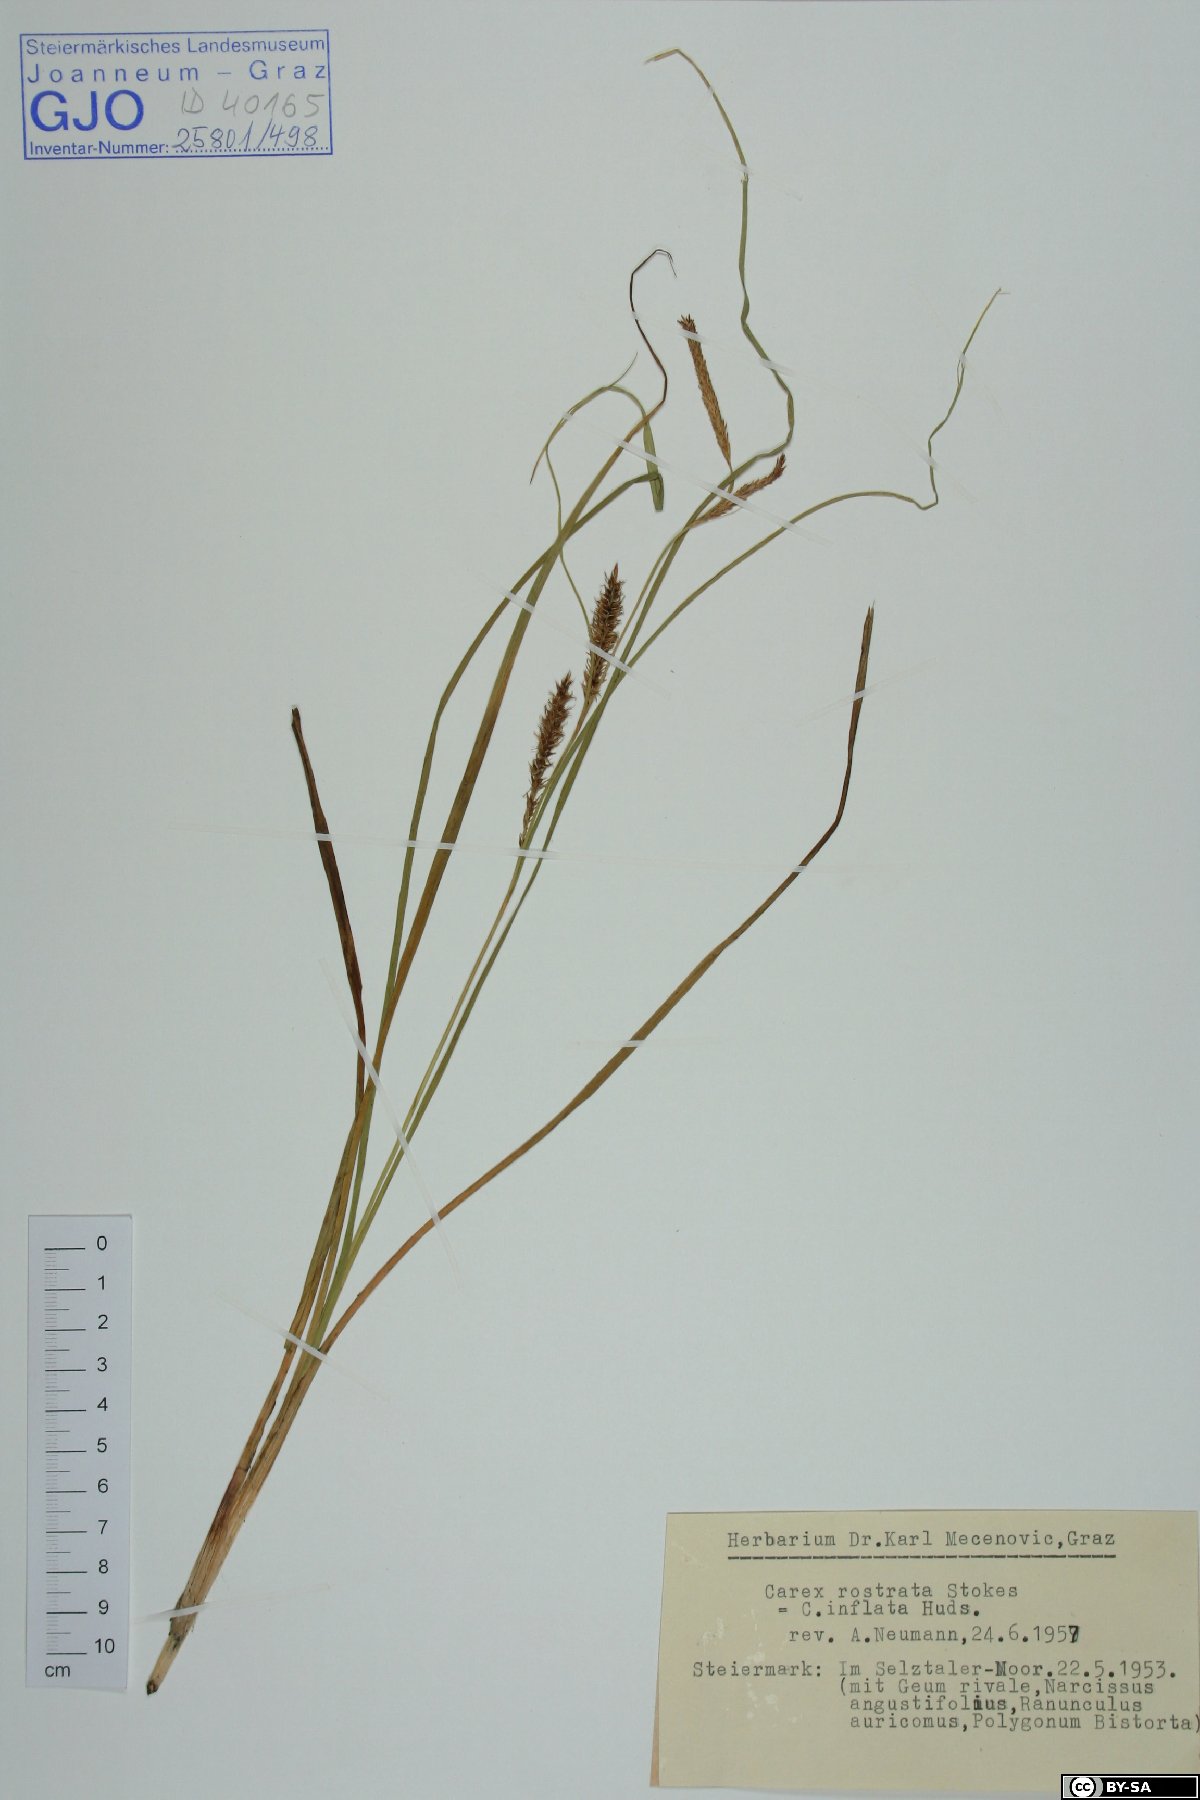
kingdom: Plantae
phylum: Tracheophyta
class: Liliopsida
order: Poales
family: Cyperaceae
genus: Carex
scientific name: Carex rostrata
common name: Bottle sedge
